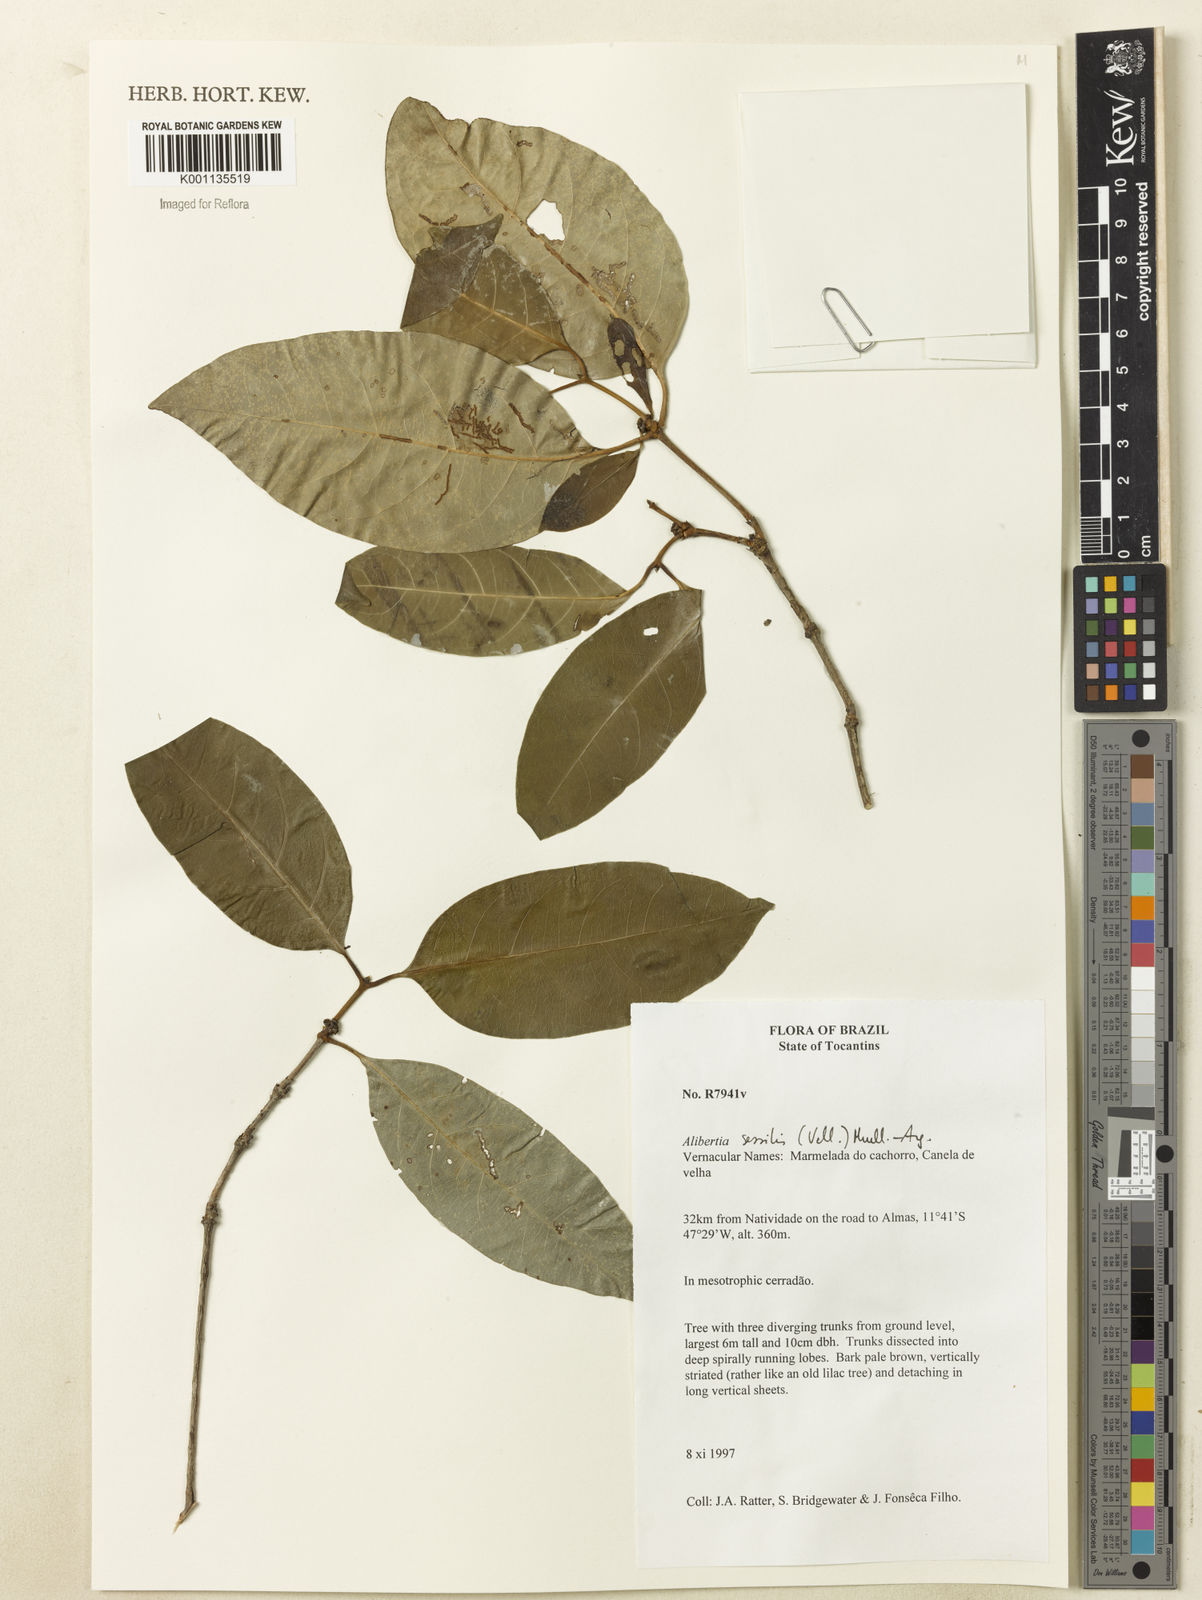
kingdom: Plantae
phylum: Tracheophyta
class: Magnoliopsida
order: Gentianales
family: Rubiaceae
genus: Cordiera
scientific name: Cordiera sessilis
